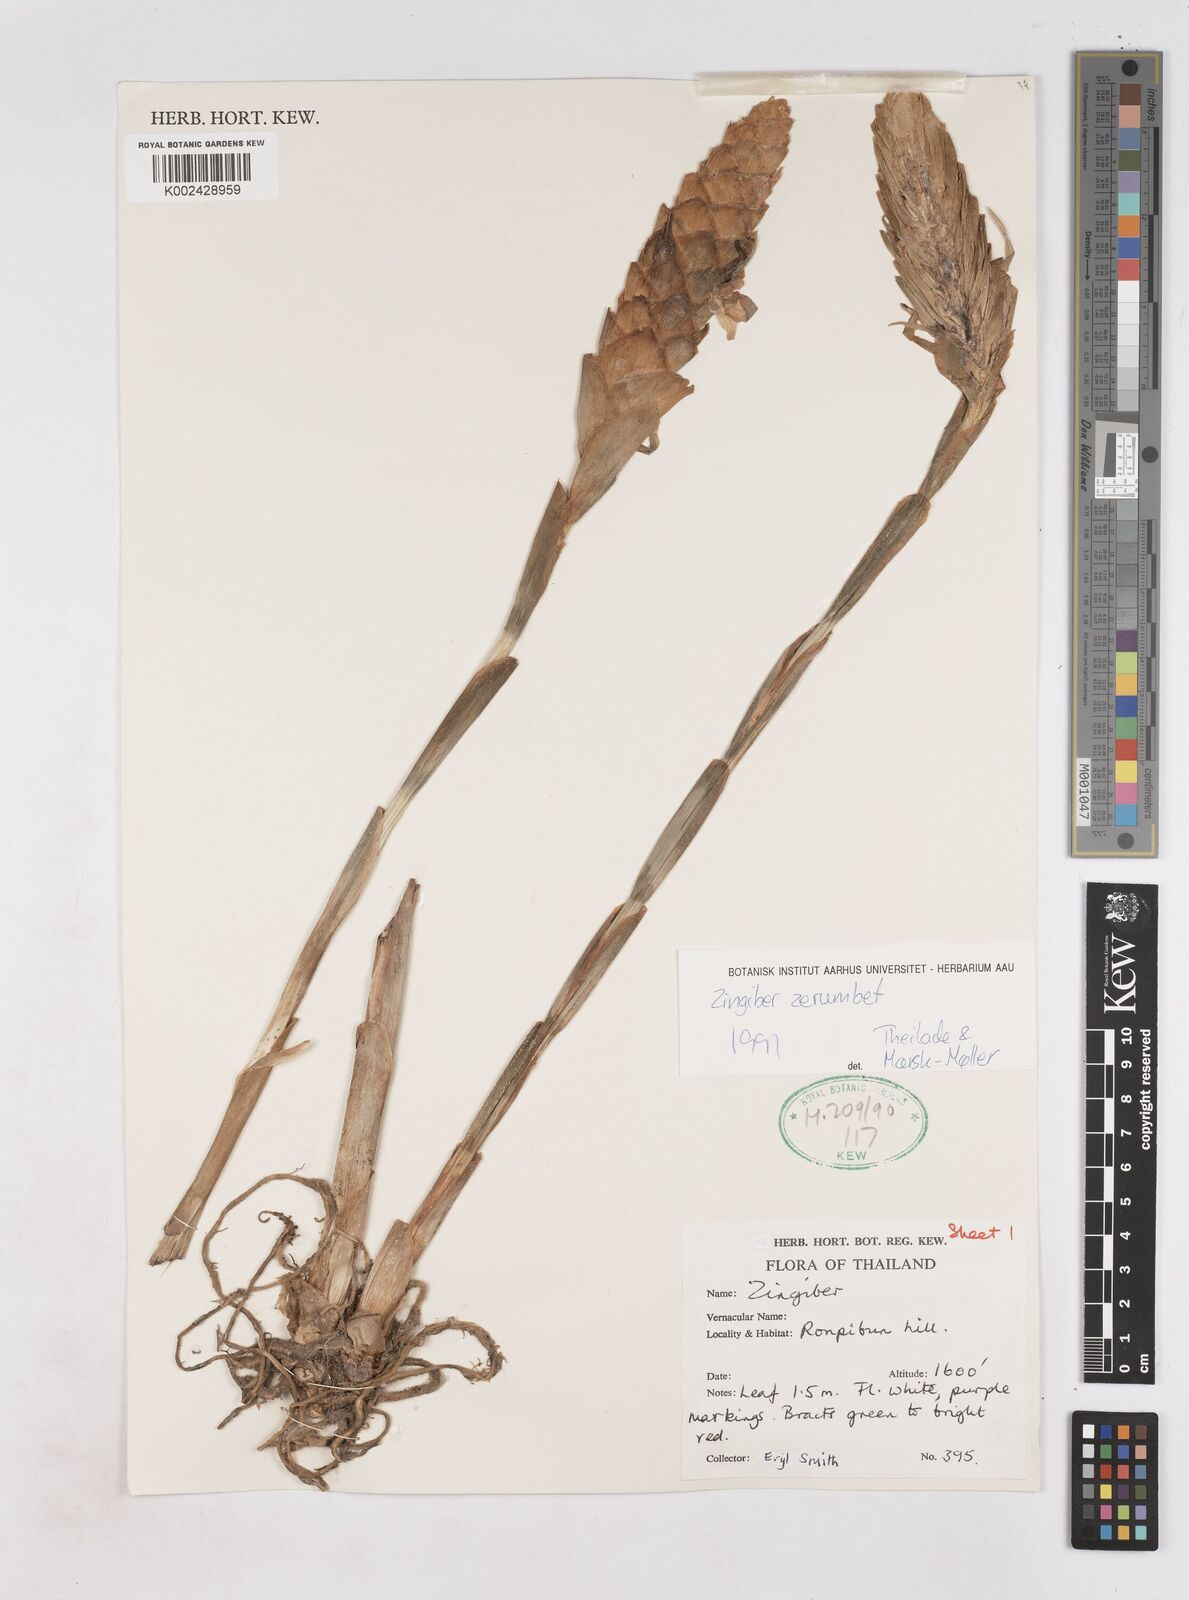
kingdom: Plantae
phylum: Tracheophyta
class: Liliopsida
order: Zingiberales
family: Zingiberaceae
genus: Zingiber
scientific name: Zingiber zerumbet
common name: Bitter ginger
